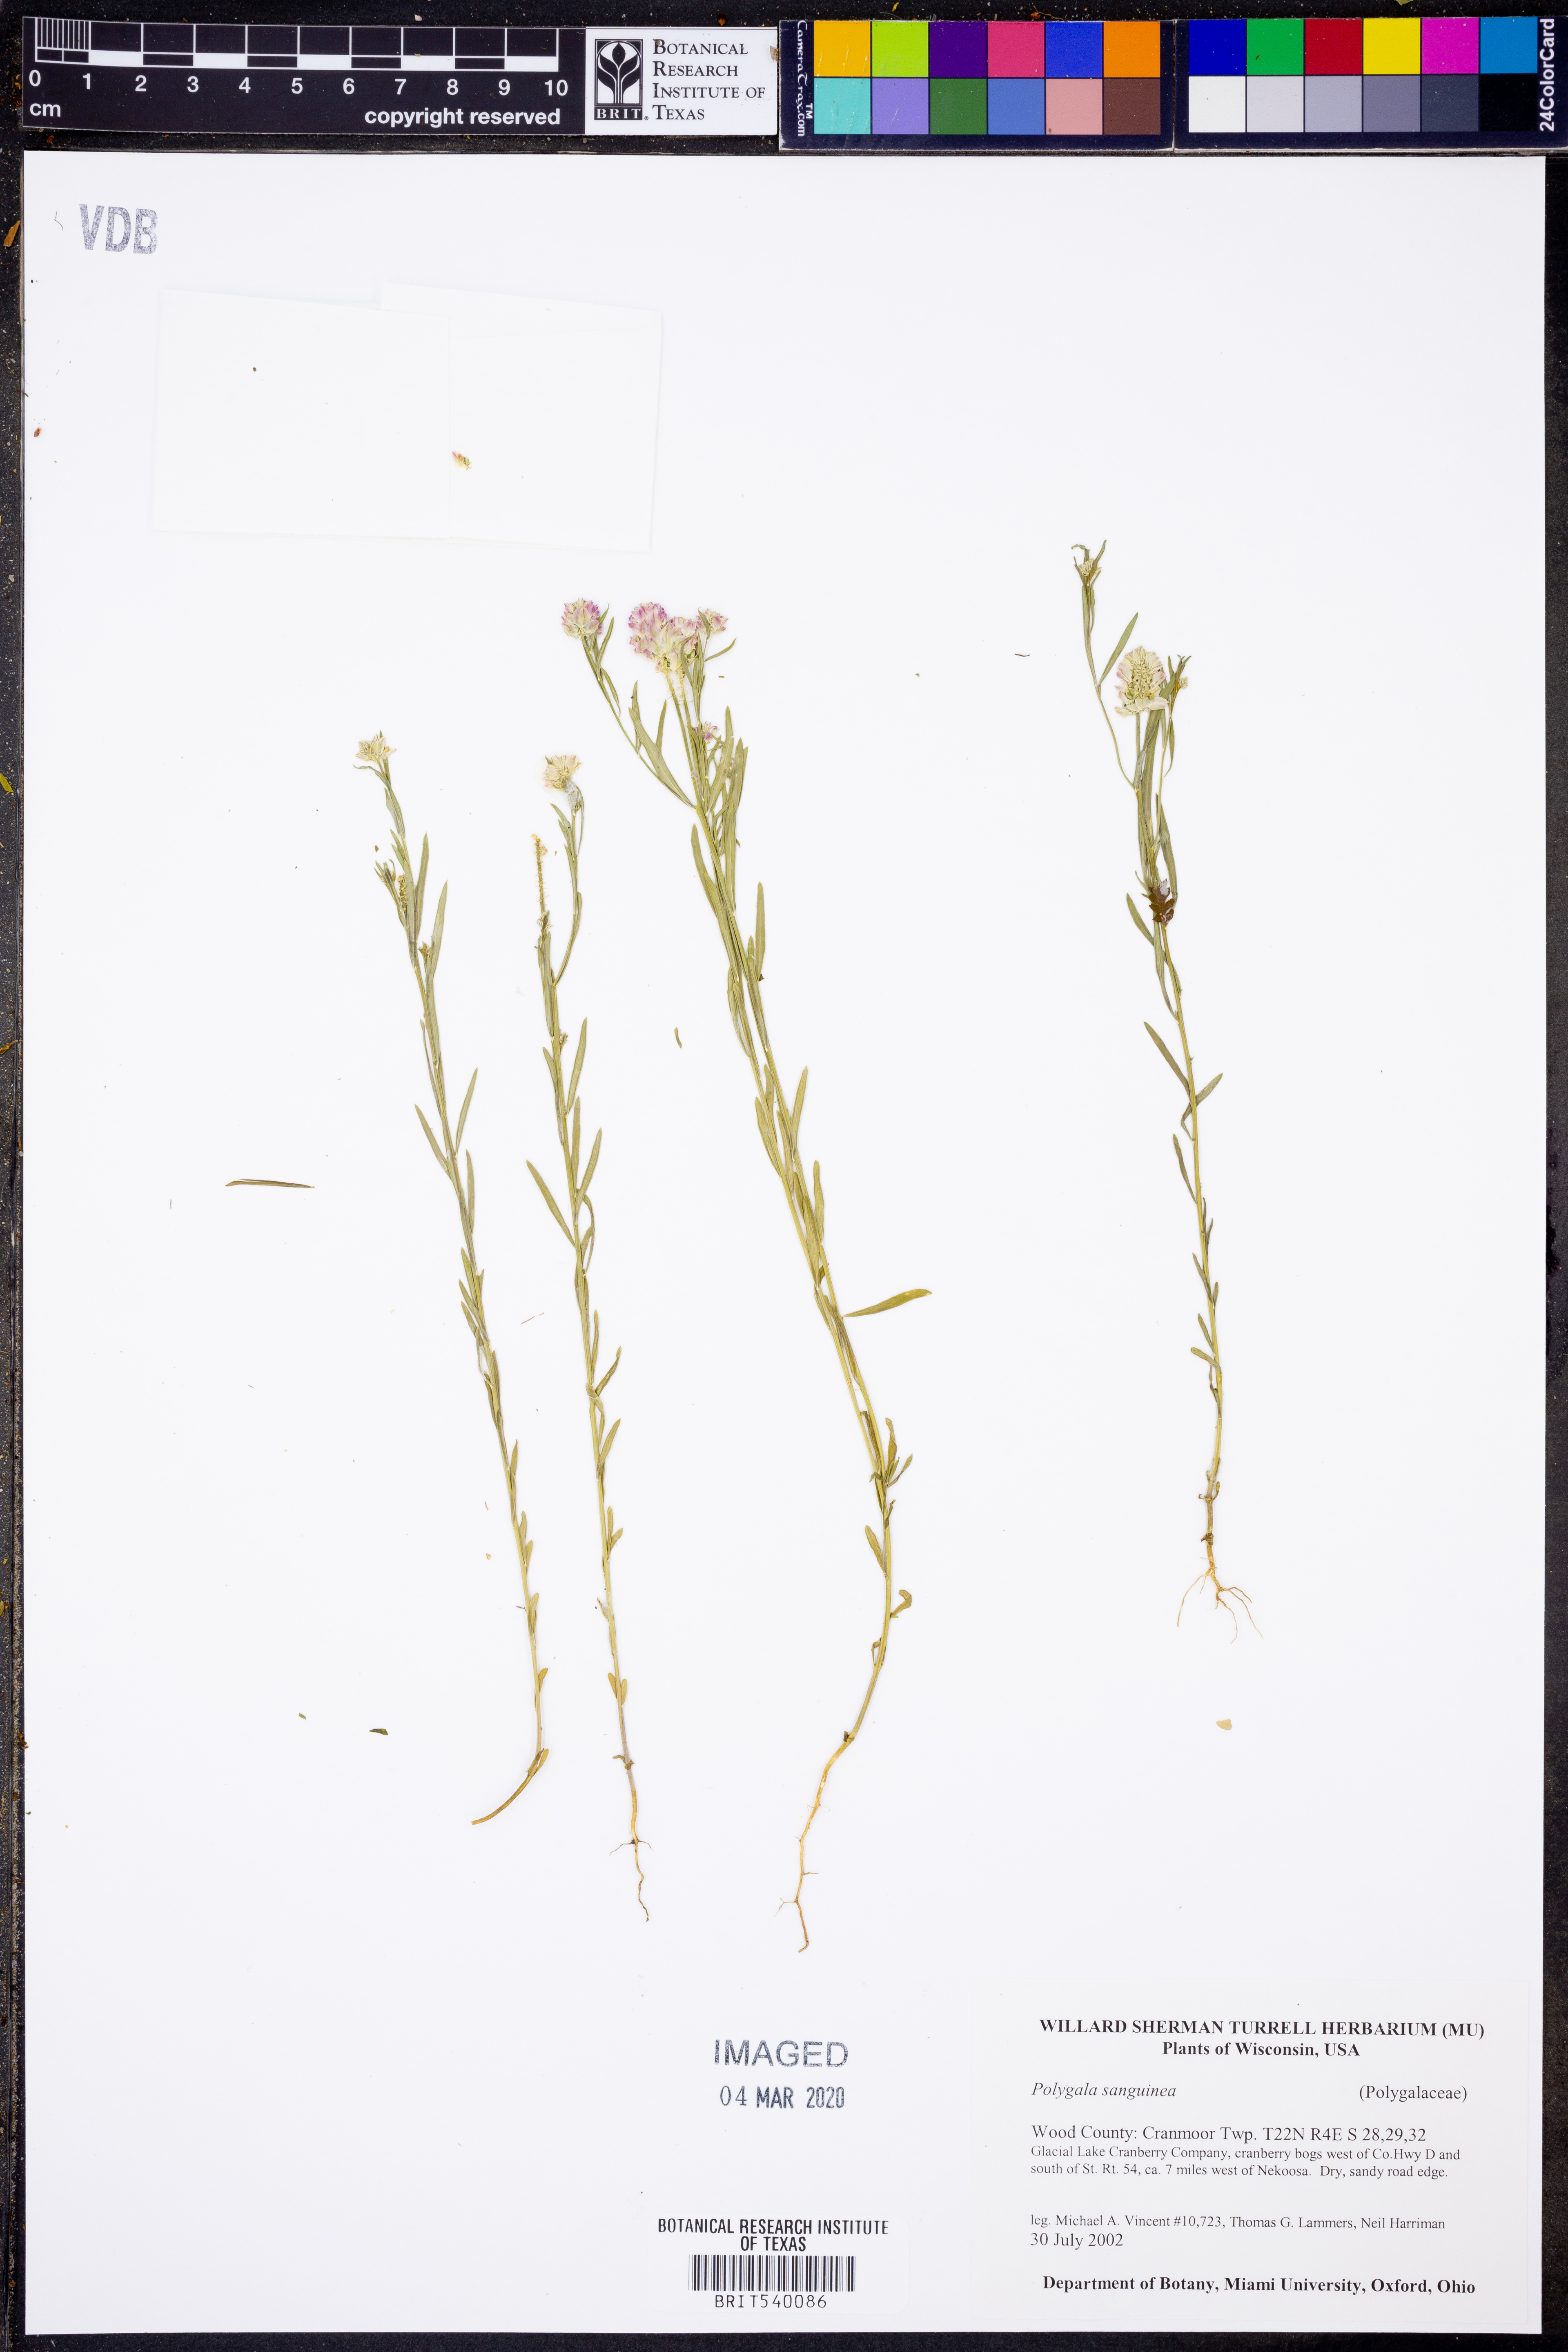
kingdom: Plantae
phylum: Tracheophyta
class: Magnoliopsida
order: Fabales
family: Polygalaceae
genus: Polygala
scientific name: Polygala sanguinea
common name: Blood milkwort
